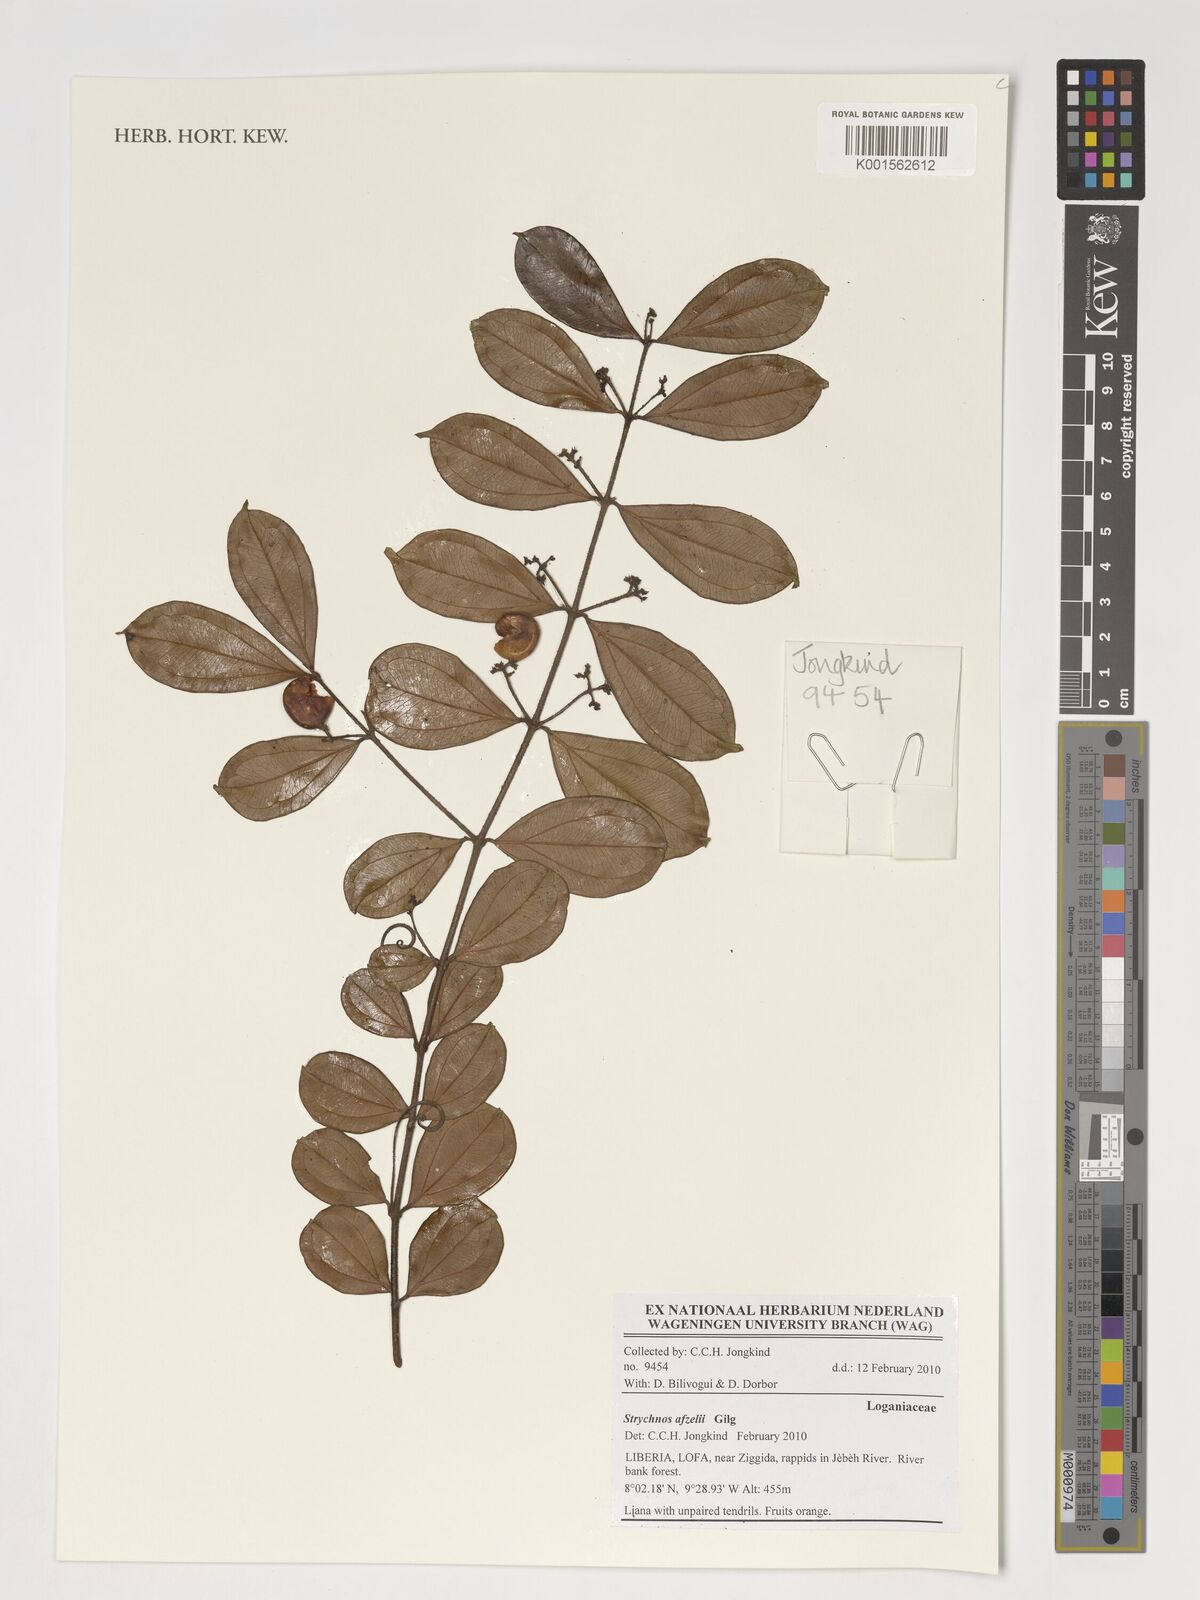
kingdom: Plantae
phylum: Tracheophyta
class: Magnoliopsida
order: Gentianales
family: Loganiaceae
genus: Strychnos
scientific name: Strychnos afzelii
